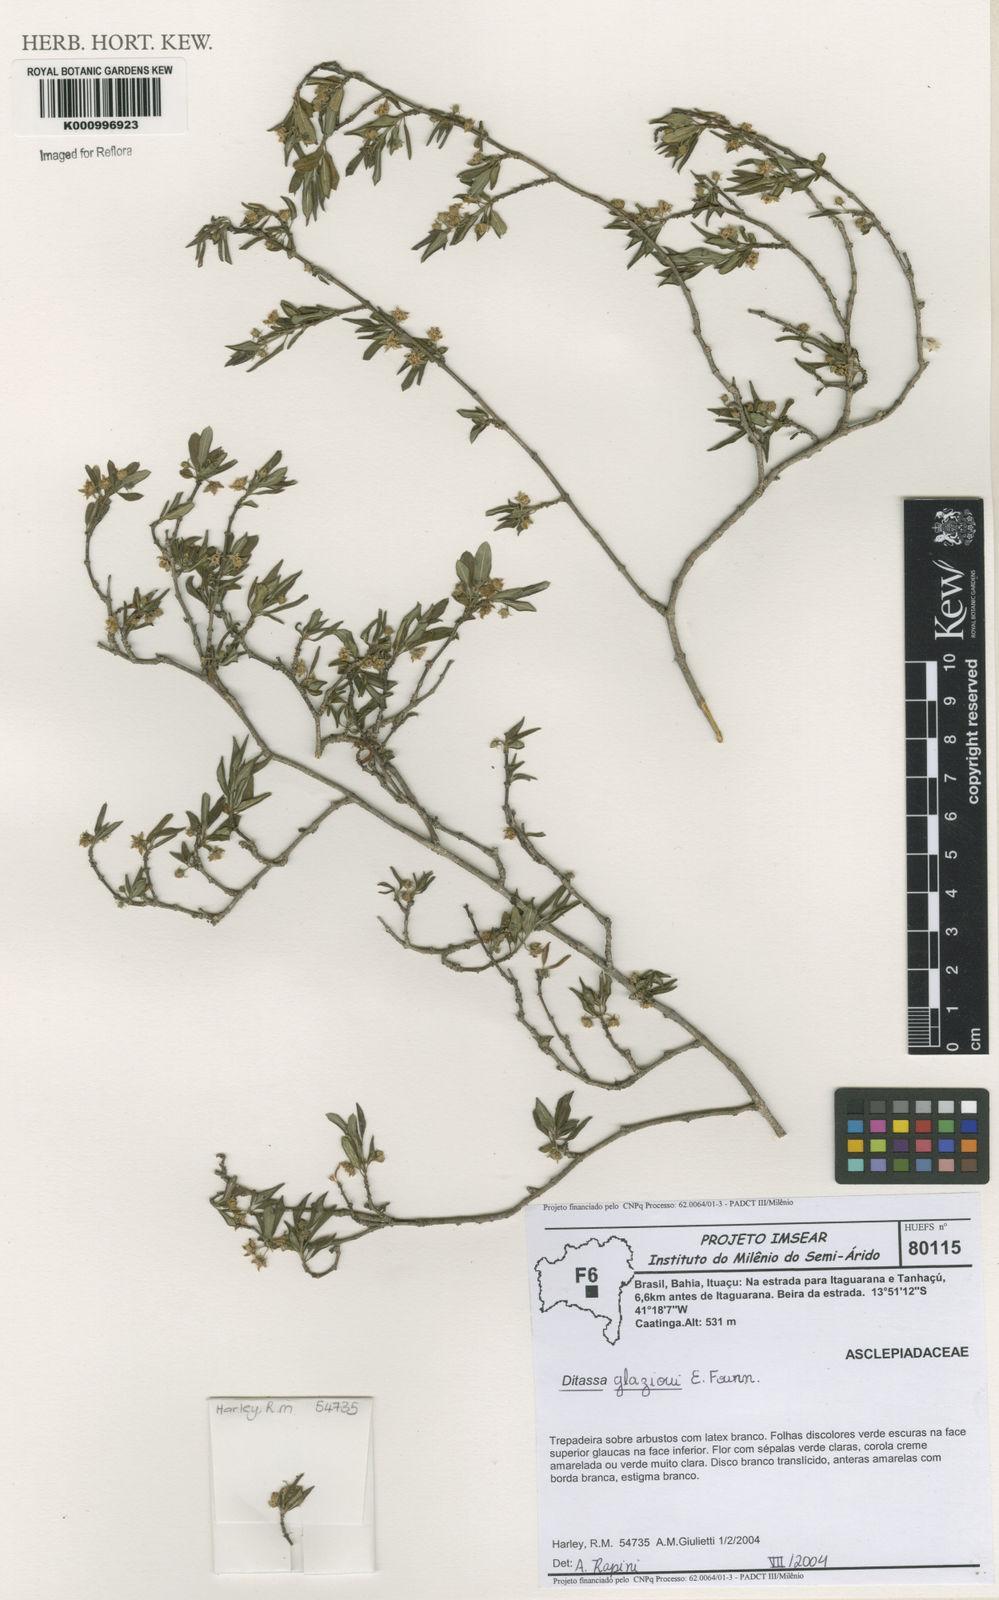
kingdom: Plantae
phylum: Tracheophyta
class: Magnoliopsida
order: Gentianales
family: Apocynaceae
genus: Ditassa
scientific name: Ditassa
